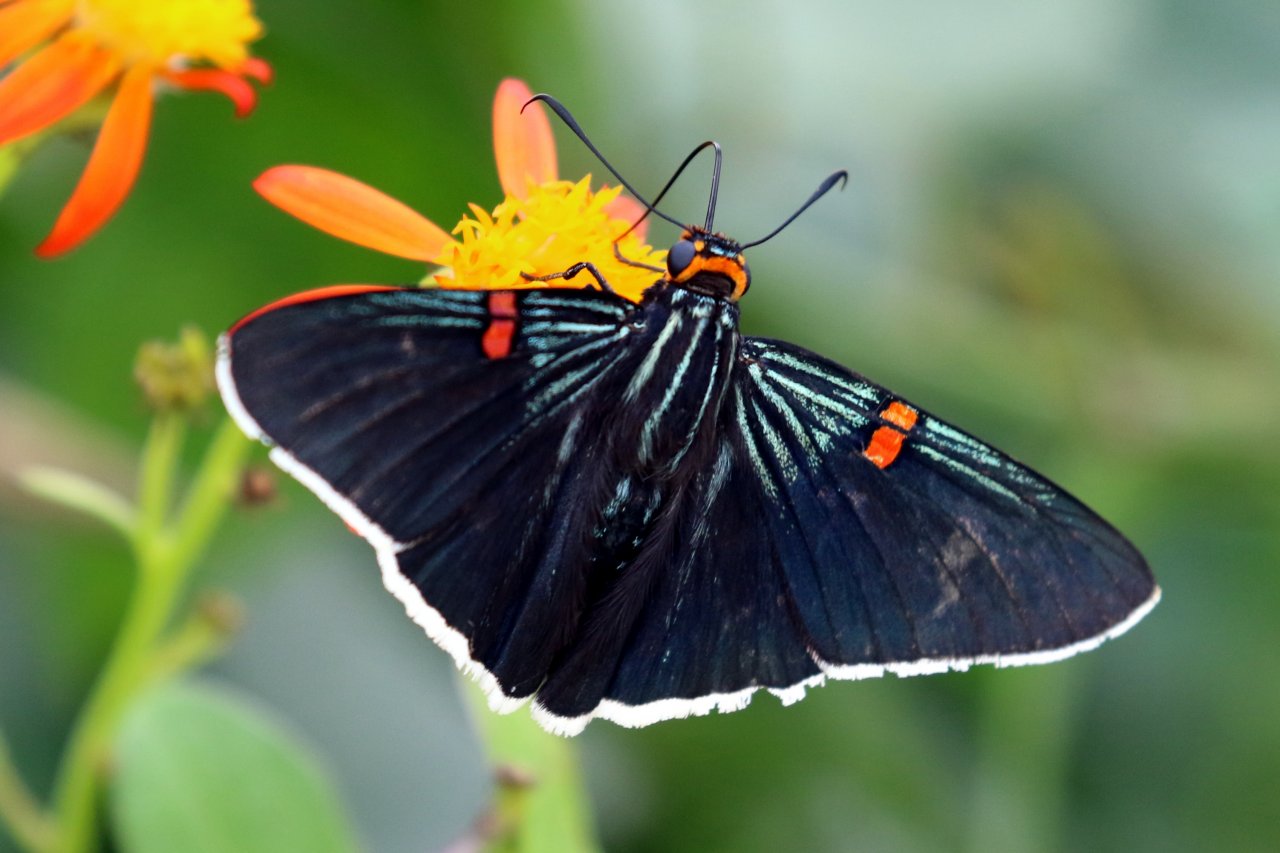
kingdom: Animalia
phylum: Arthropoda
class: Insecta
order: Lepidoptera
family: Hesperiidae
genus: Phocides
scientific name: Phocides polybius
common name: Guava Skipper
